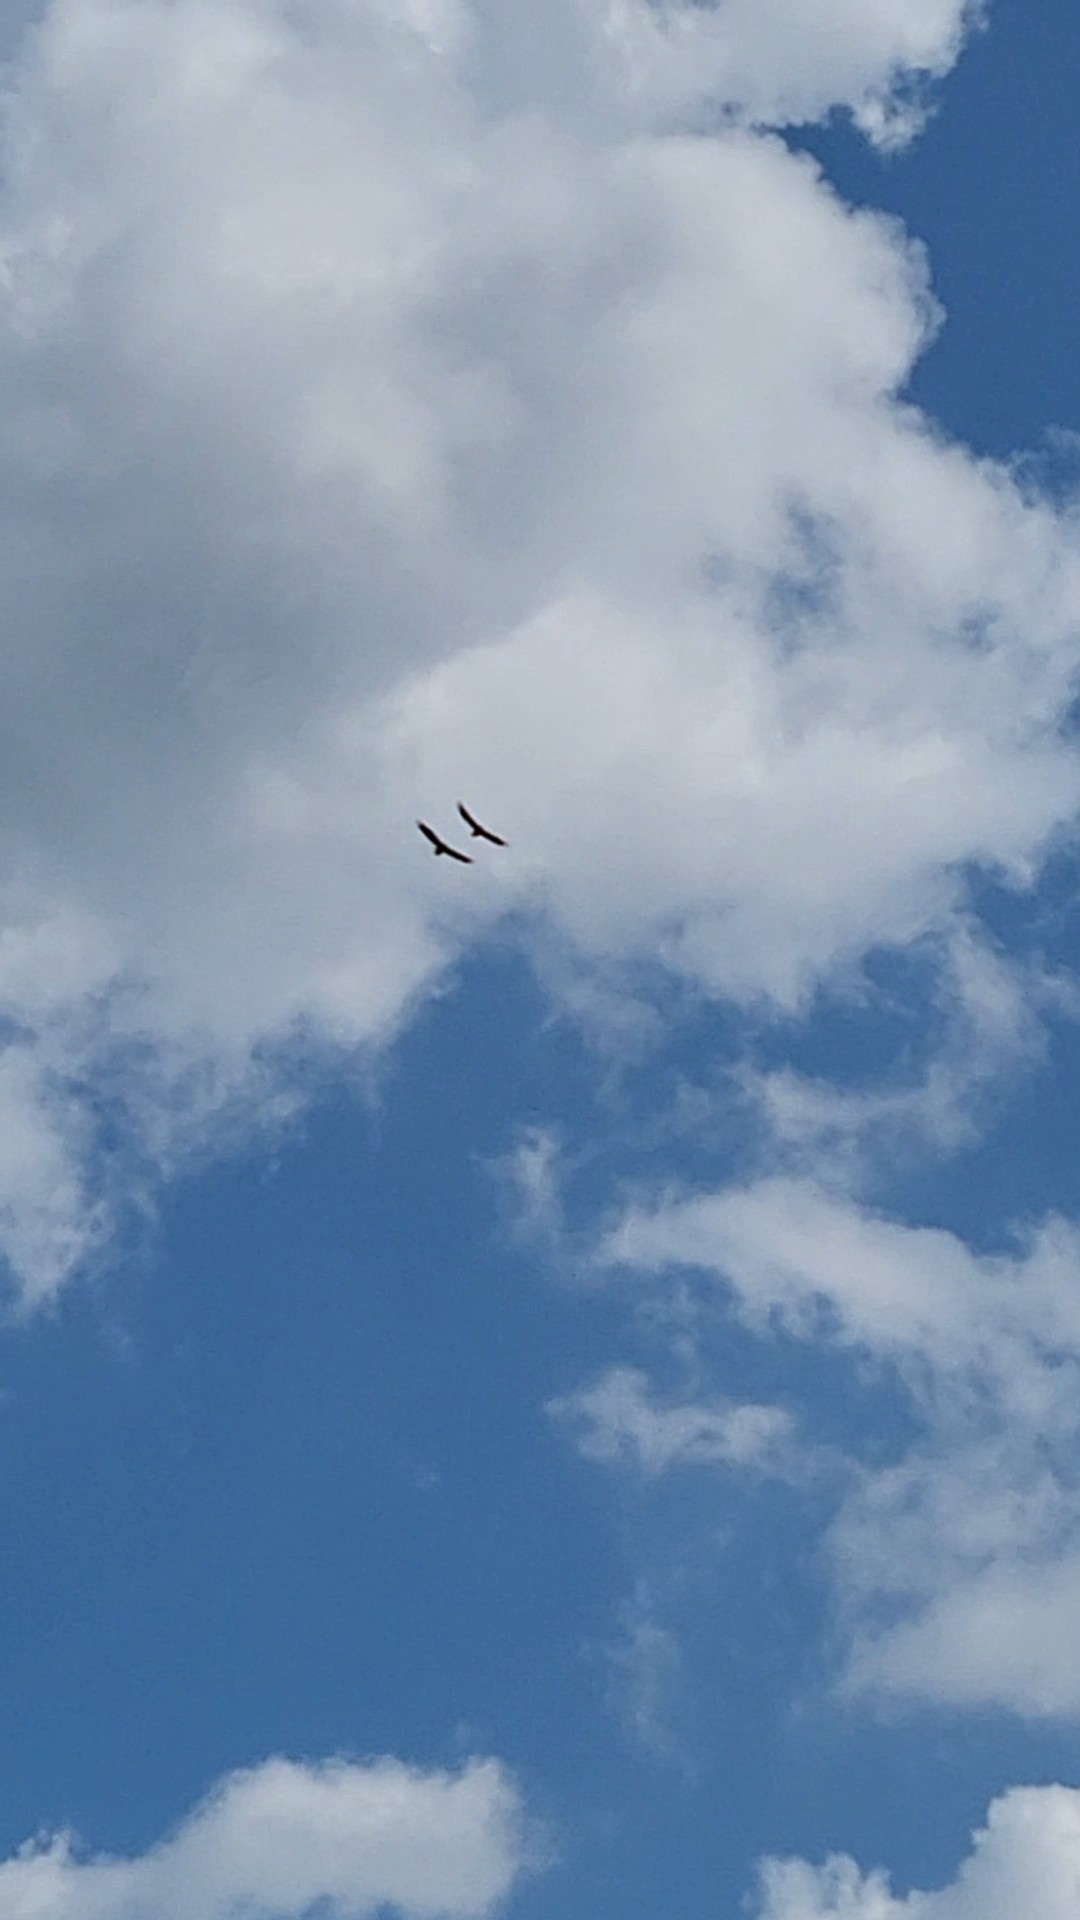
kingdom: Animalia
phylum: Chordata
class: Aves
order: Accipitriformes
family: Accipitridae
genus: Haliaeetus
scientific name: Haliaeetus albicilla
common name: Havørn
